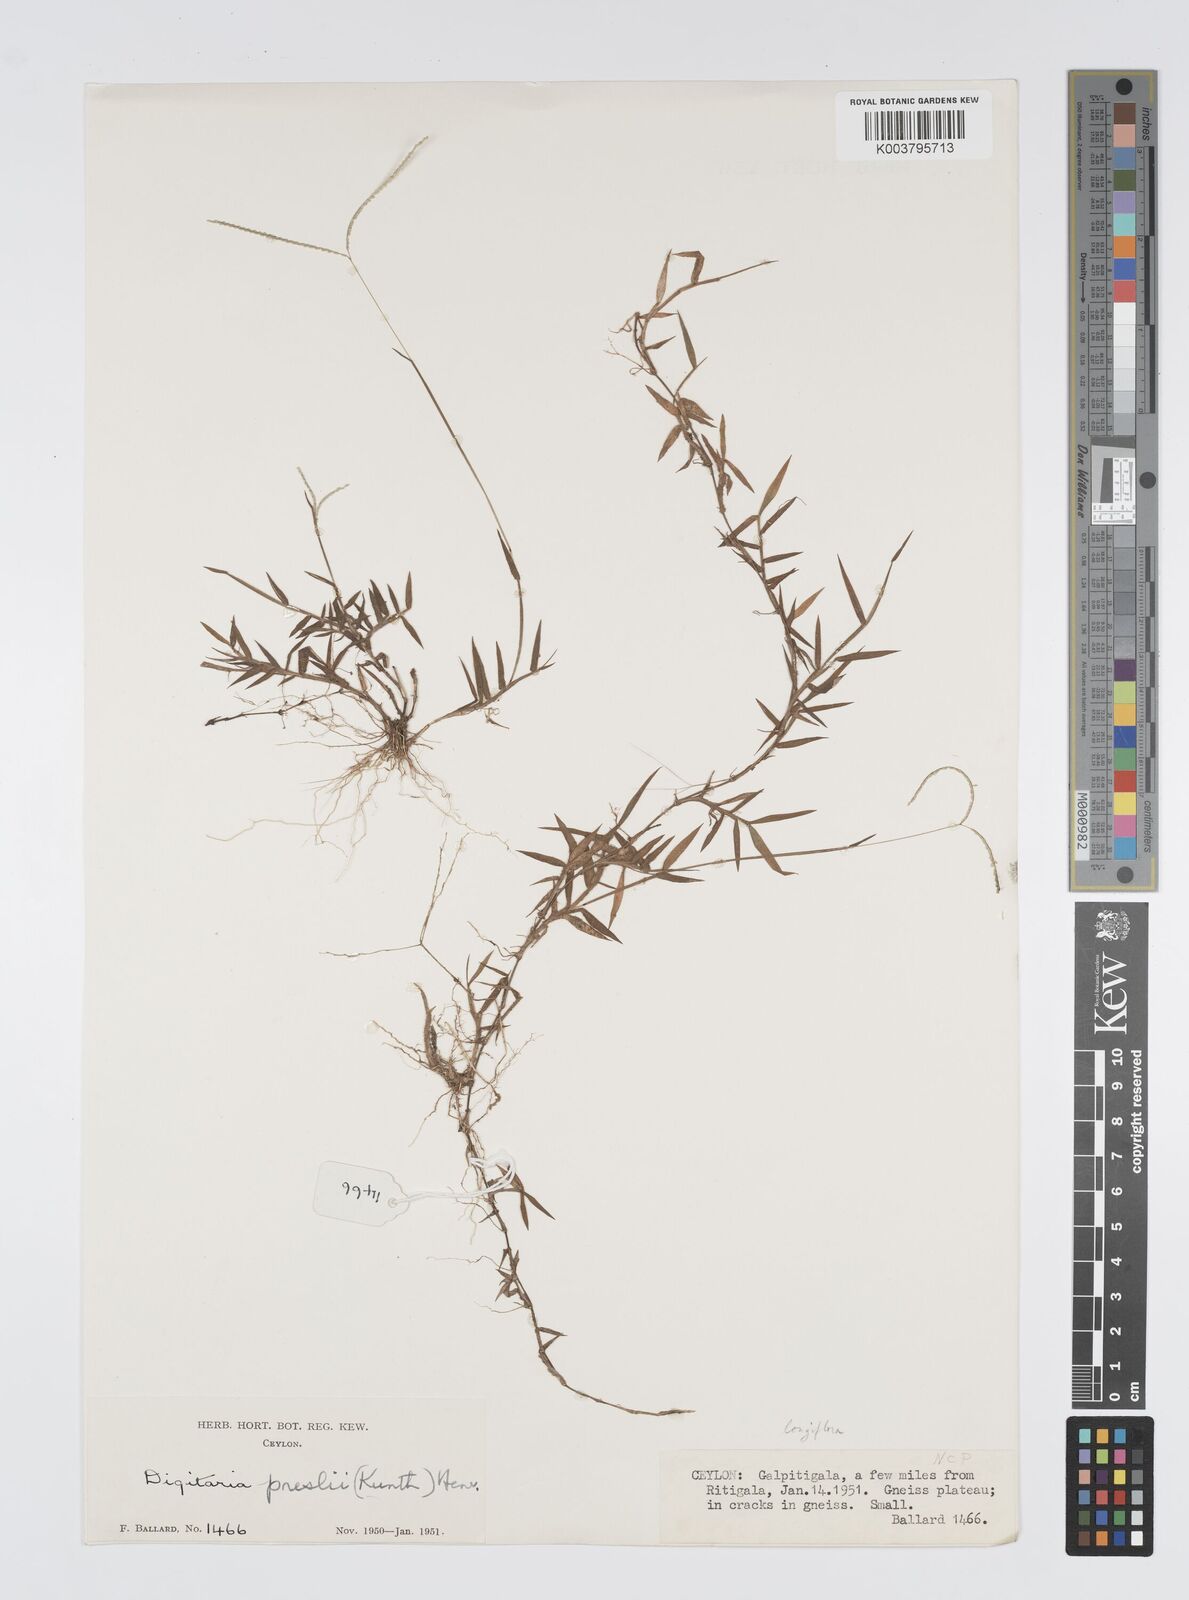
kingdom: Plantae
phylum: Tracheophyta
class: Liliopsida
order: Poales
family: Poaceae
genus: Digitaria
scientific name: Digitaria longiflora
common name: Wire crabgrass
